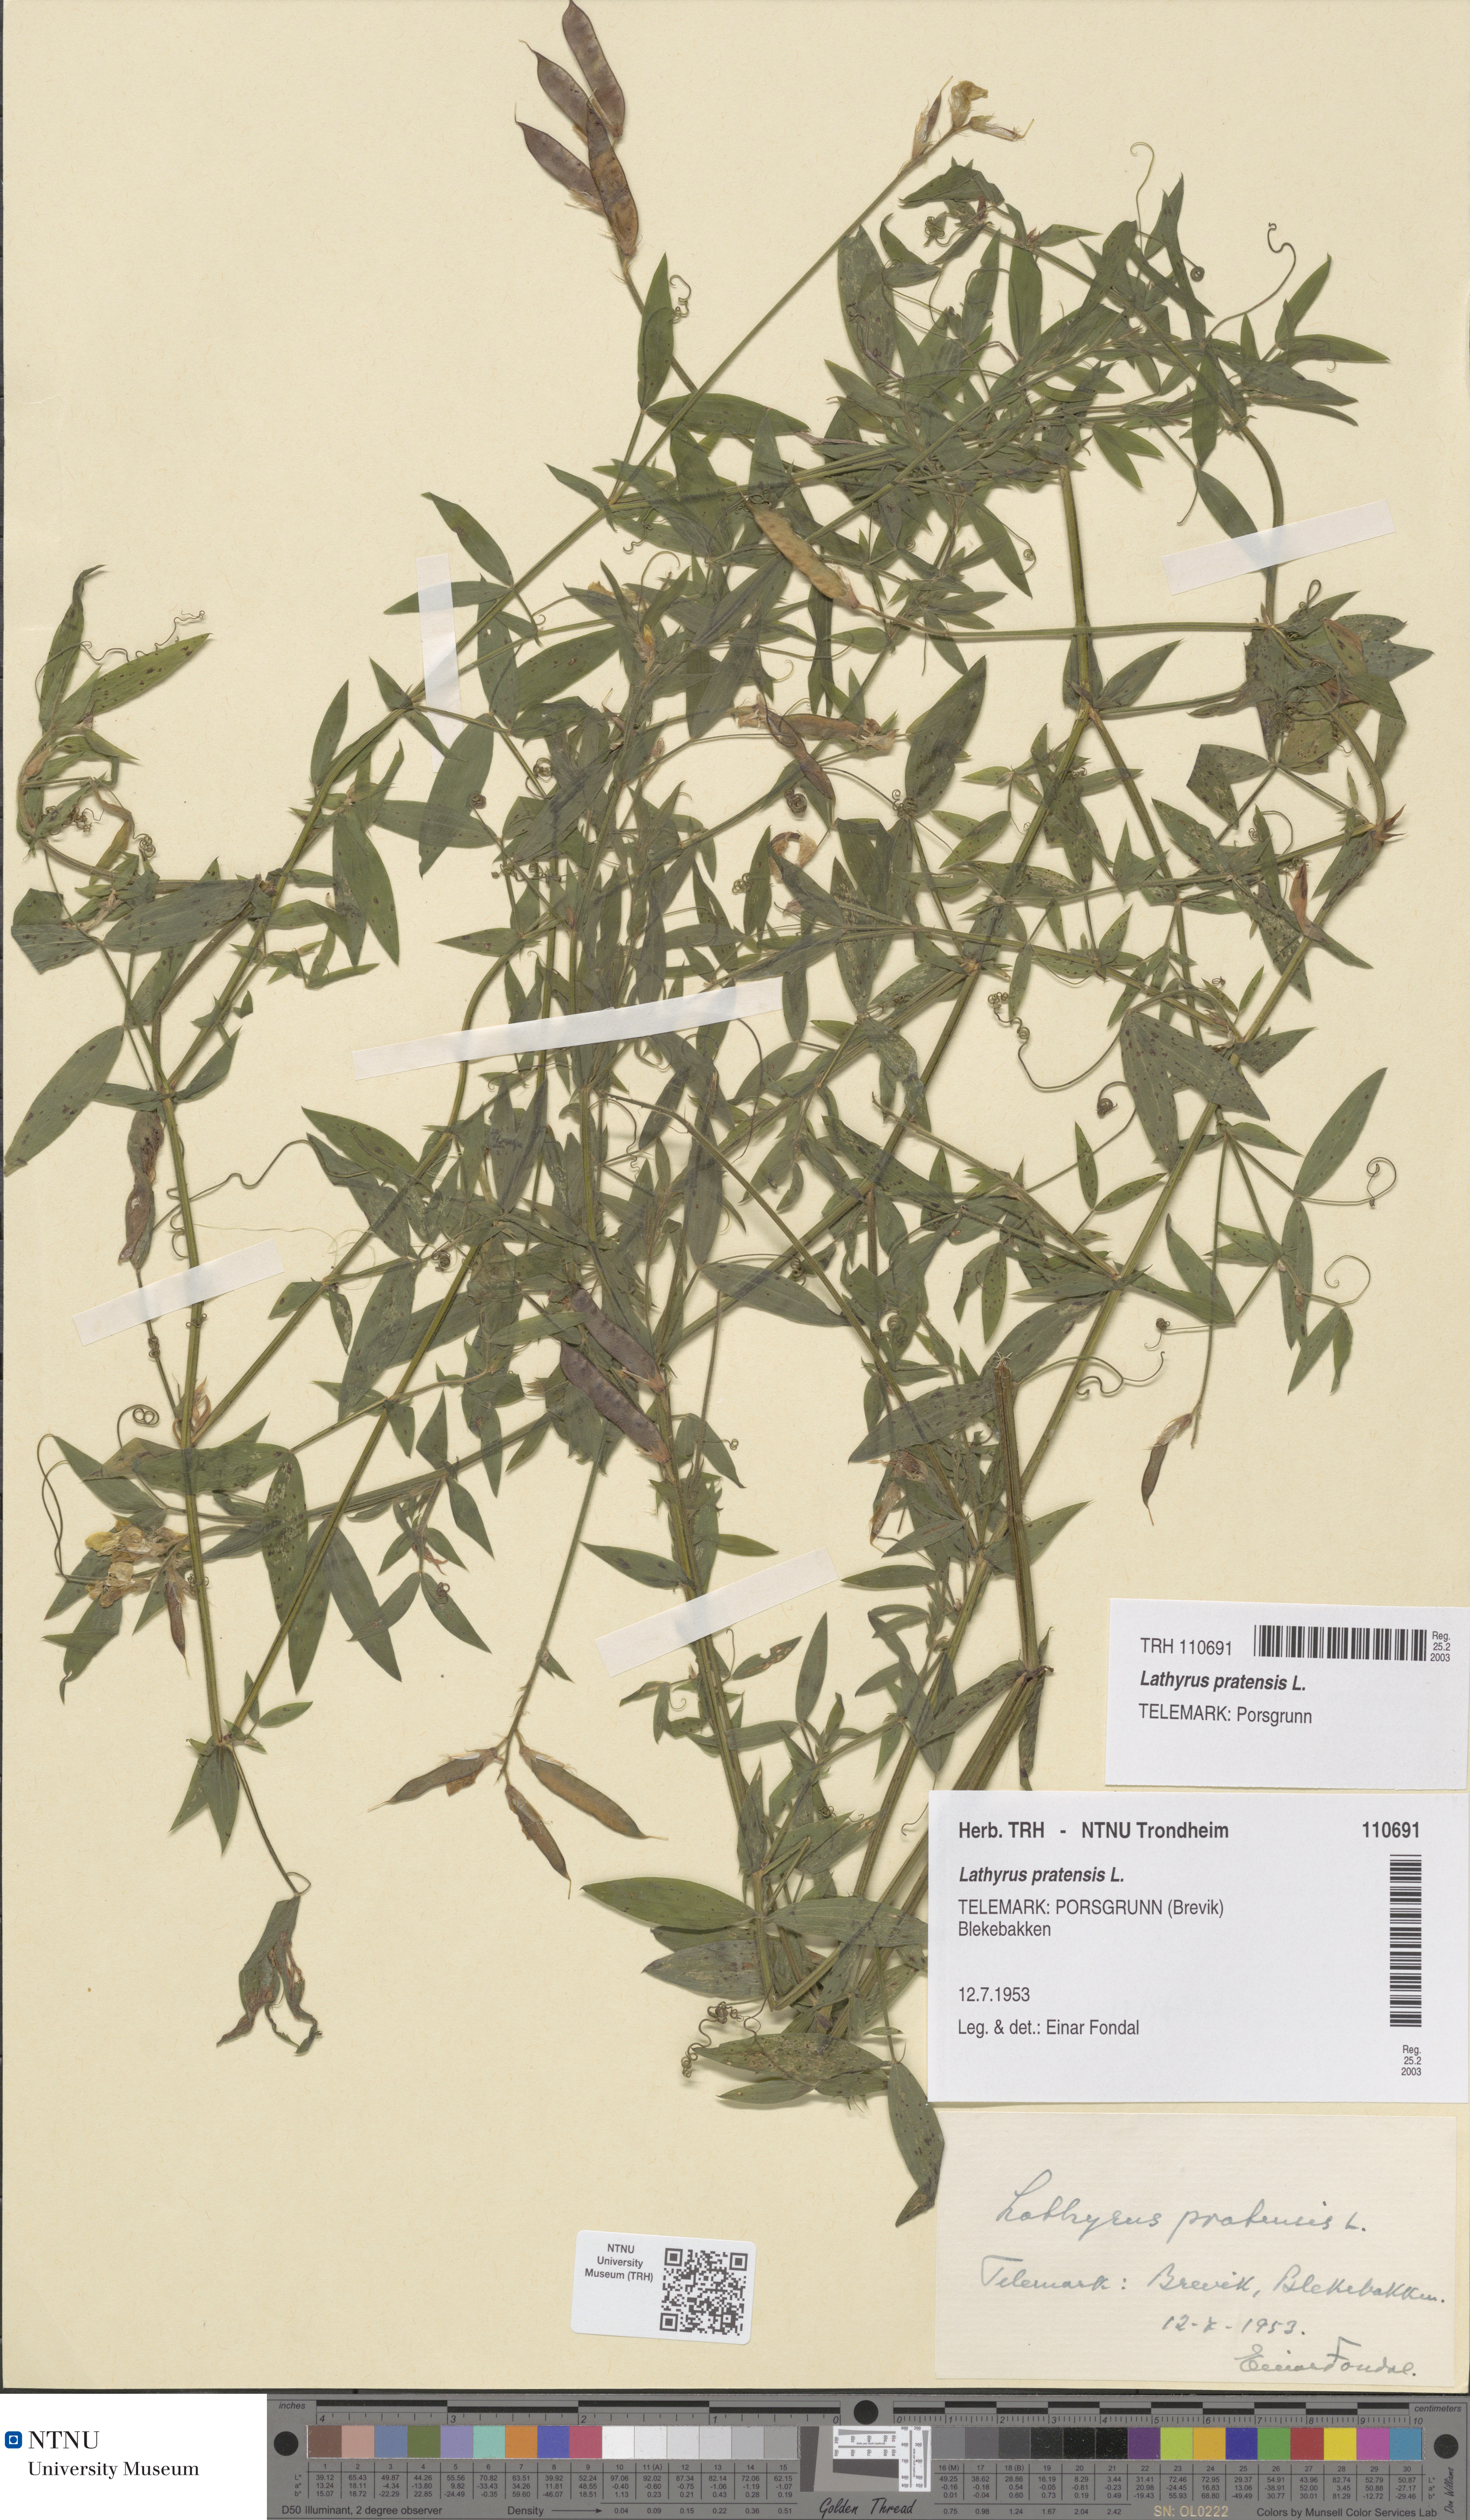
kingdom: Plantae
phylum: Tracheophyta
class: Magnoliopsida
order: Fabales
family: Fabaceae
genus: Lathyrus
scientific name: Lathyrus pratensis
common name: Meadow vetchling
